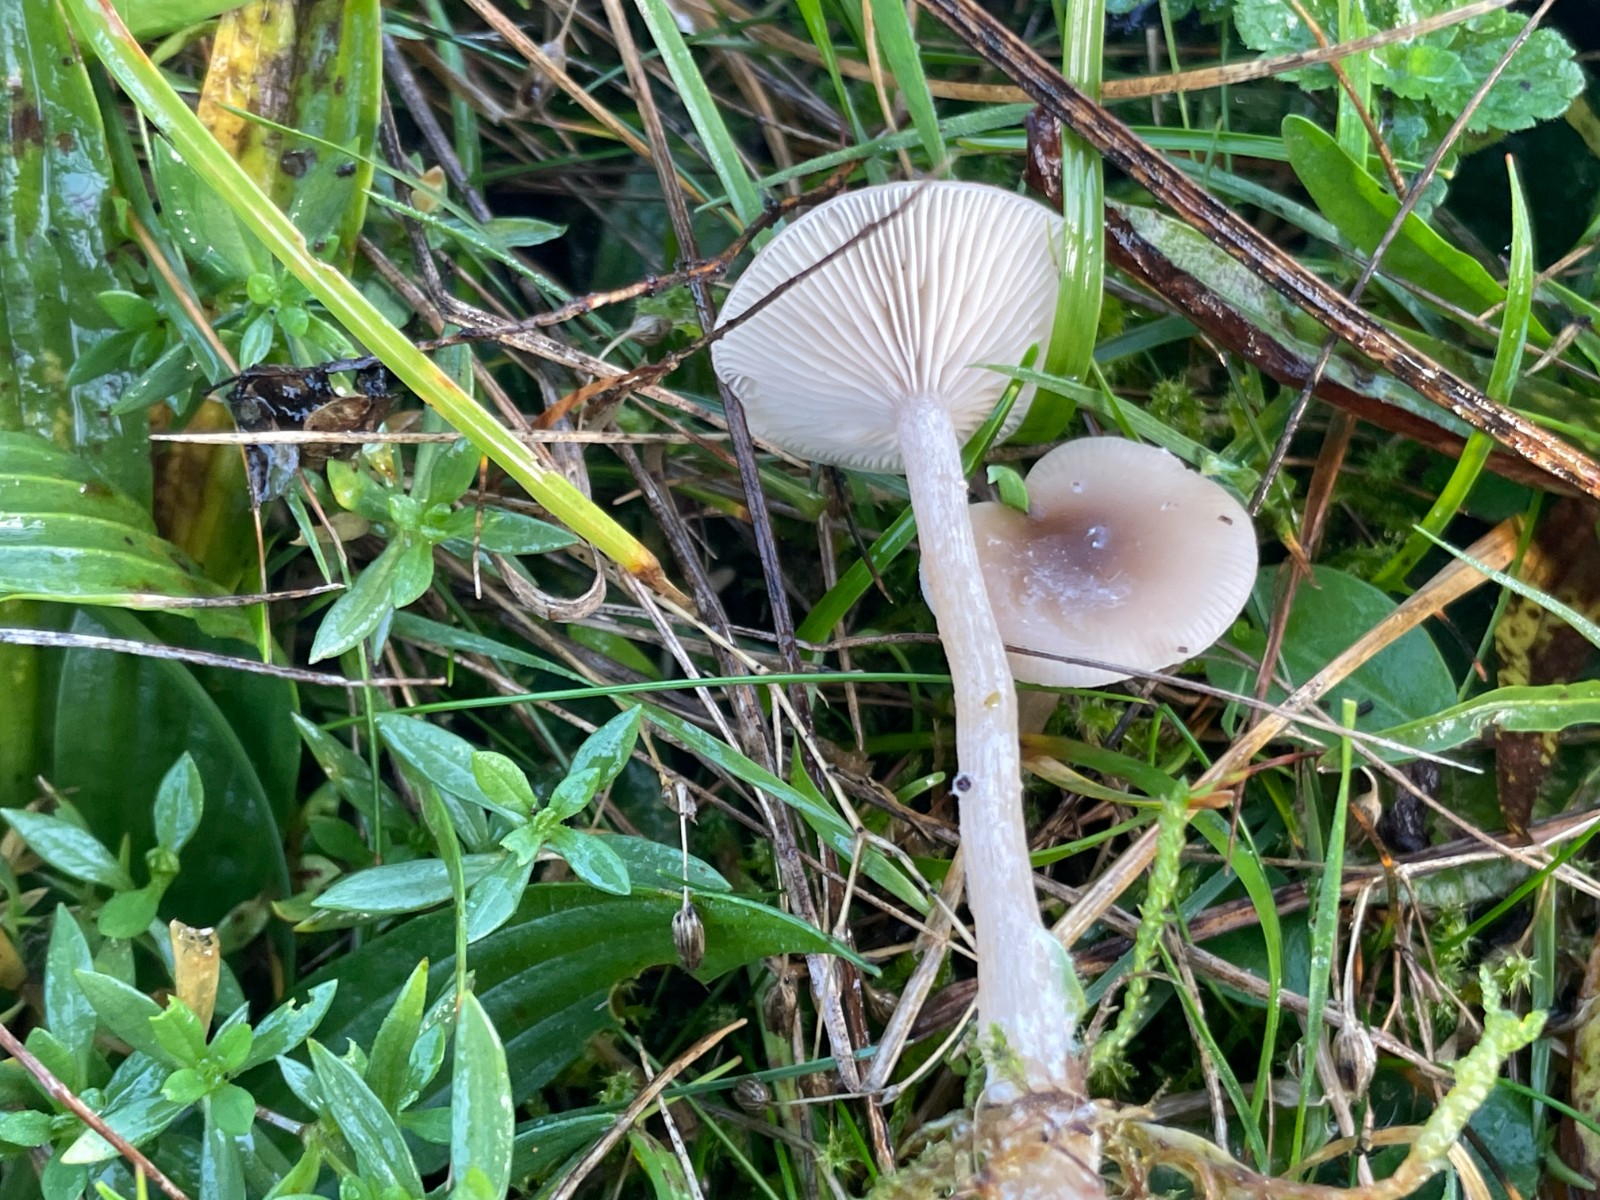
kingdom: Fungi
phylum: Basidiomycota
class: Agaricomycetes
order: Agaricales
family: Tricholomataceae
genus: Clitocybe
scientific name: Clitocybe fragrans
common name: vellugtende tragthat
